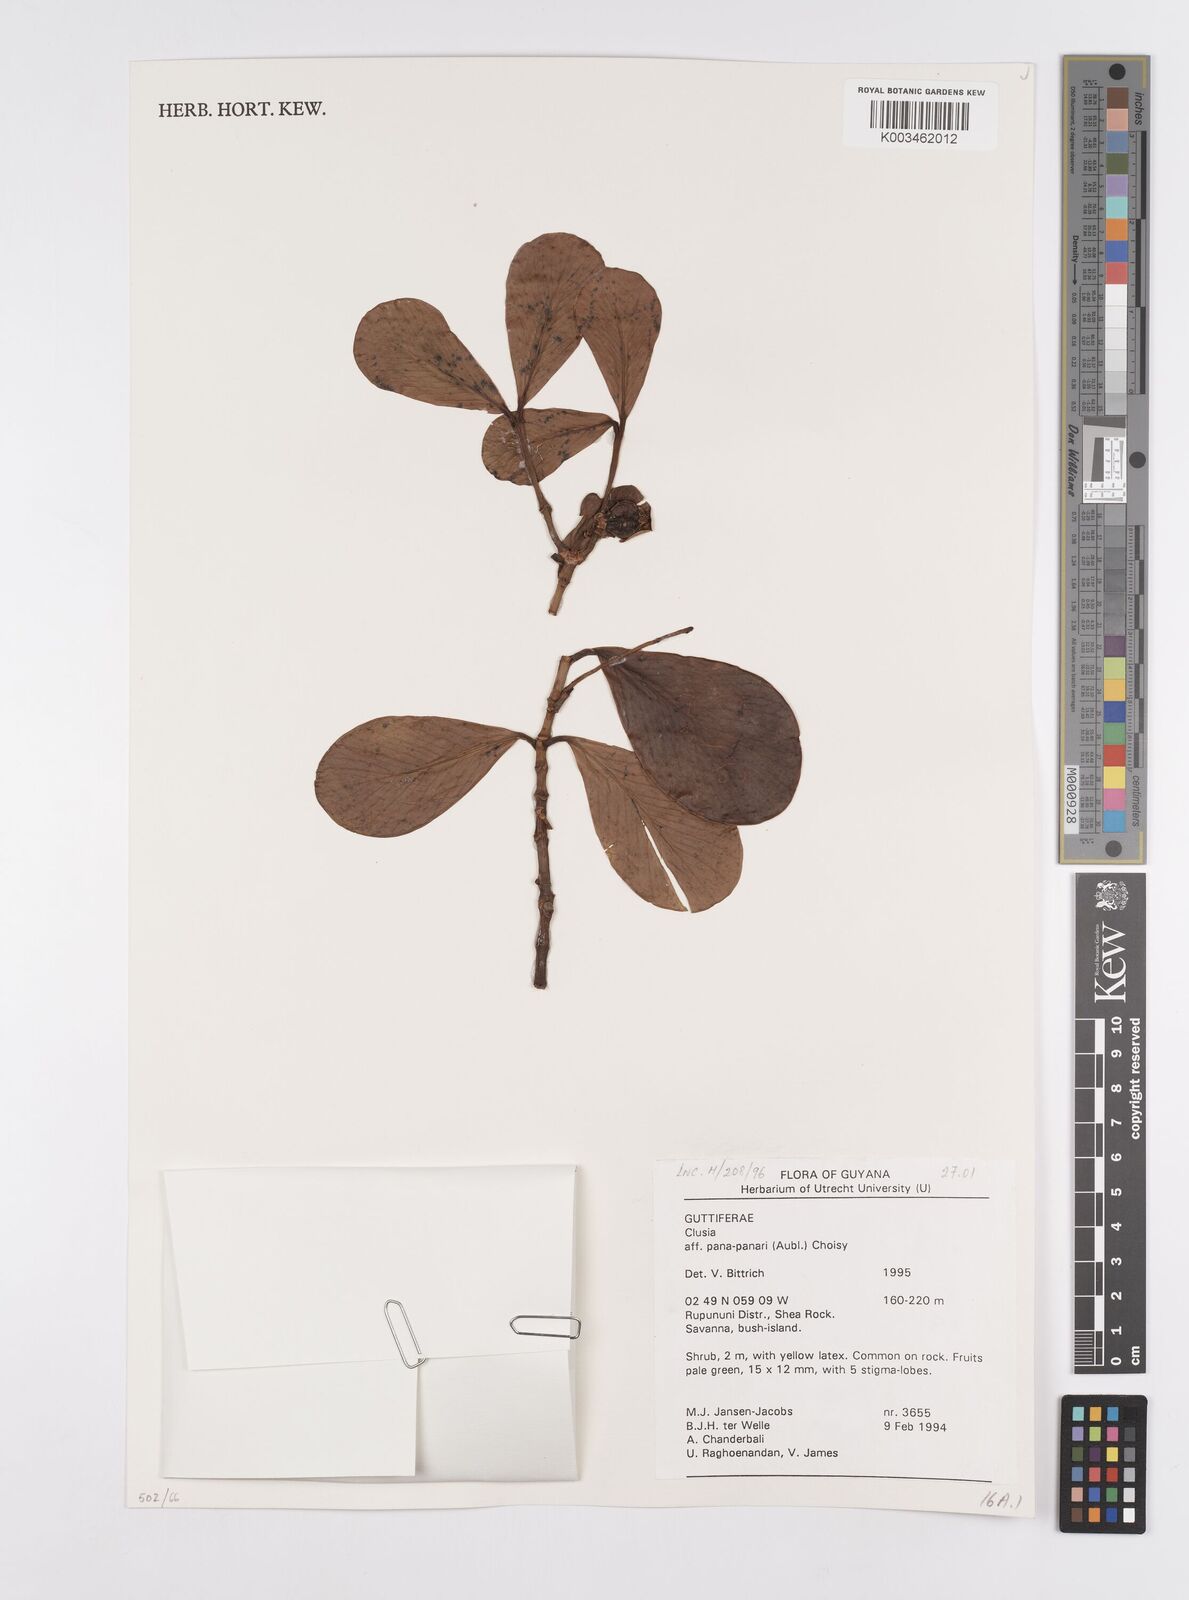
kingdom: Plantae
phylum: Tracheophyta
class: Magnoliopsida
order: Malpighiales
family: Clusiaceae
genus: Clusia
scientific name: Clusia panapanari
